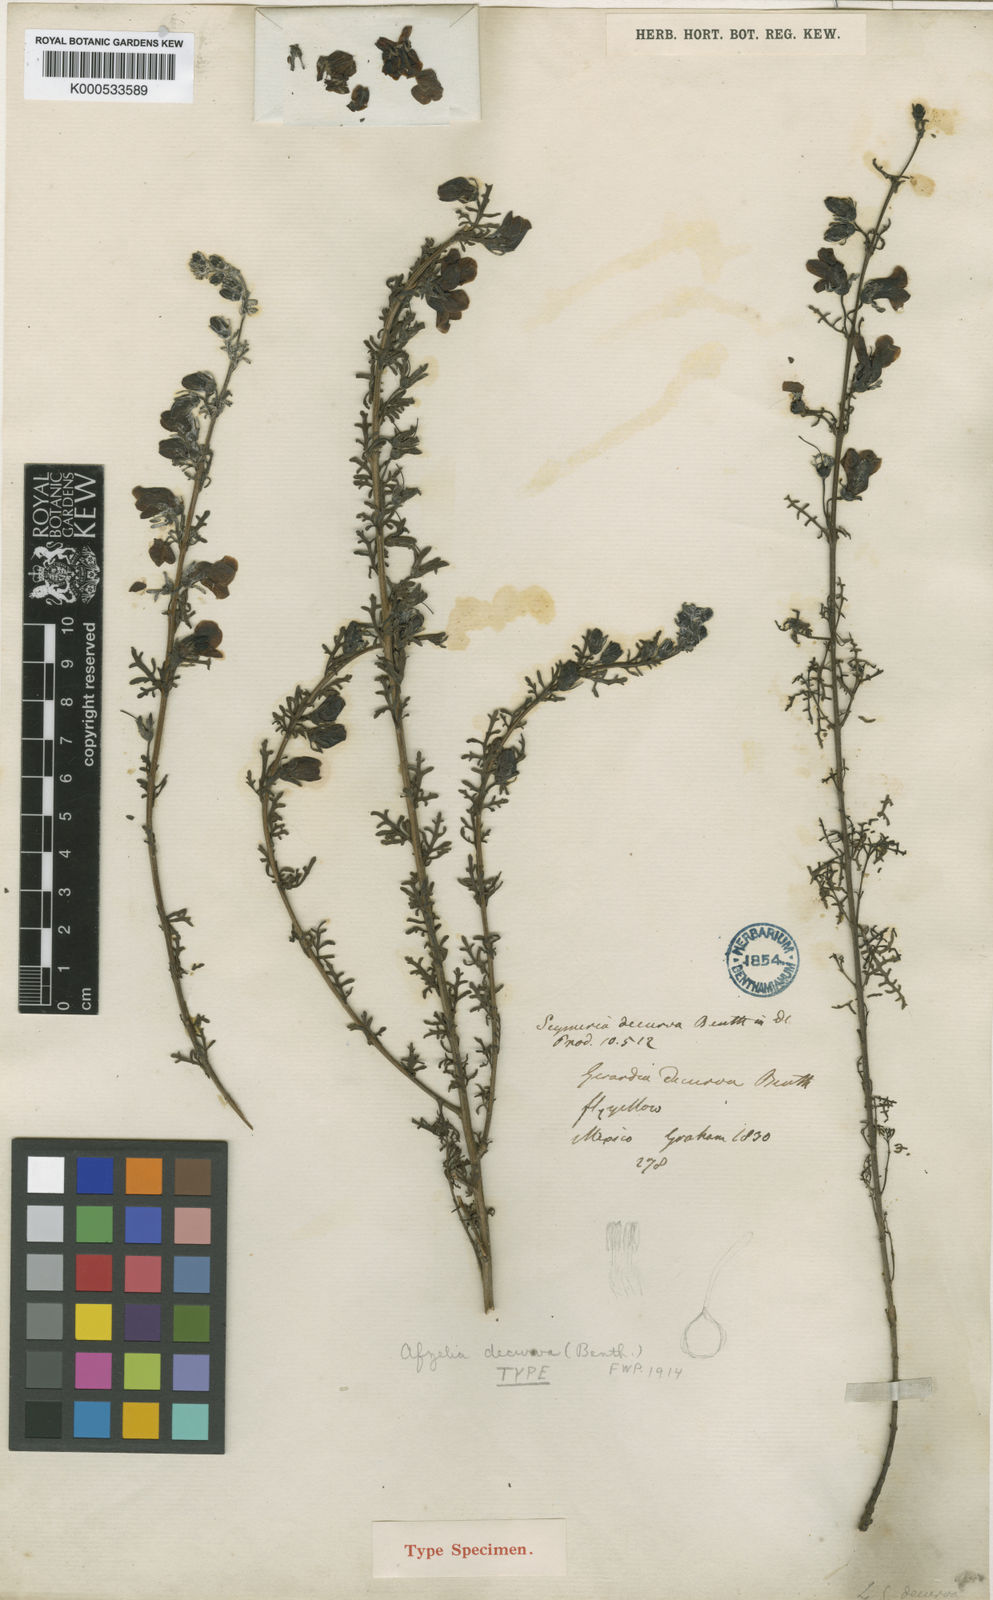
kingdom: Plantae
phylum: Tracheophyta
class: Magnoliopsida
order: Lamiales
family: Orobanchaceae
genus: Seymeria
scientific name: Seymeria decurva
